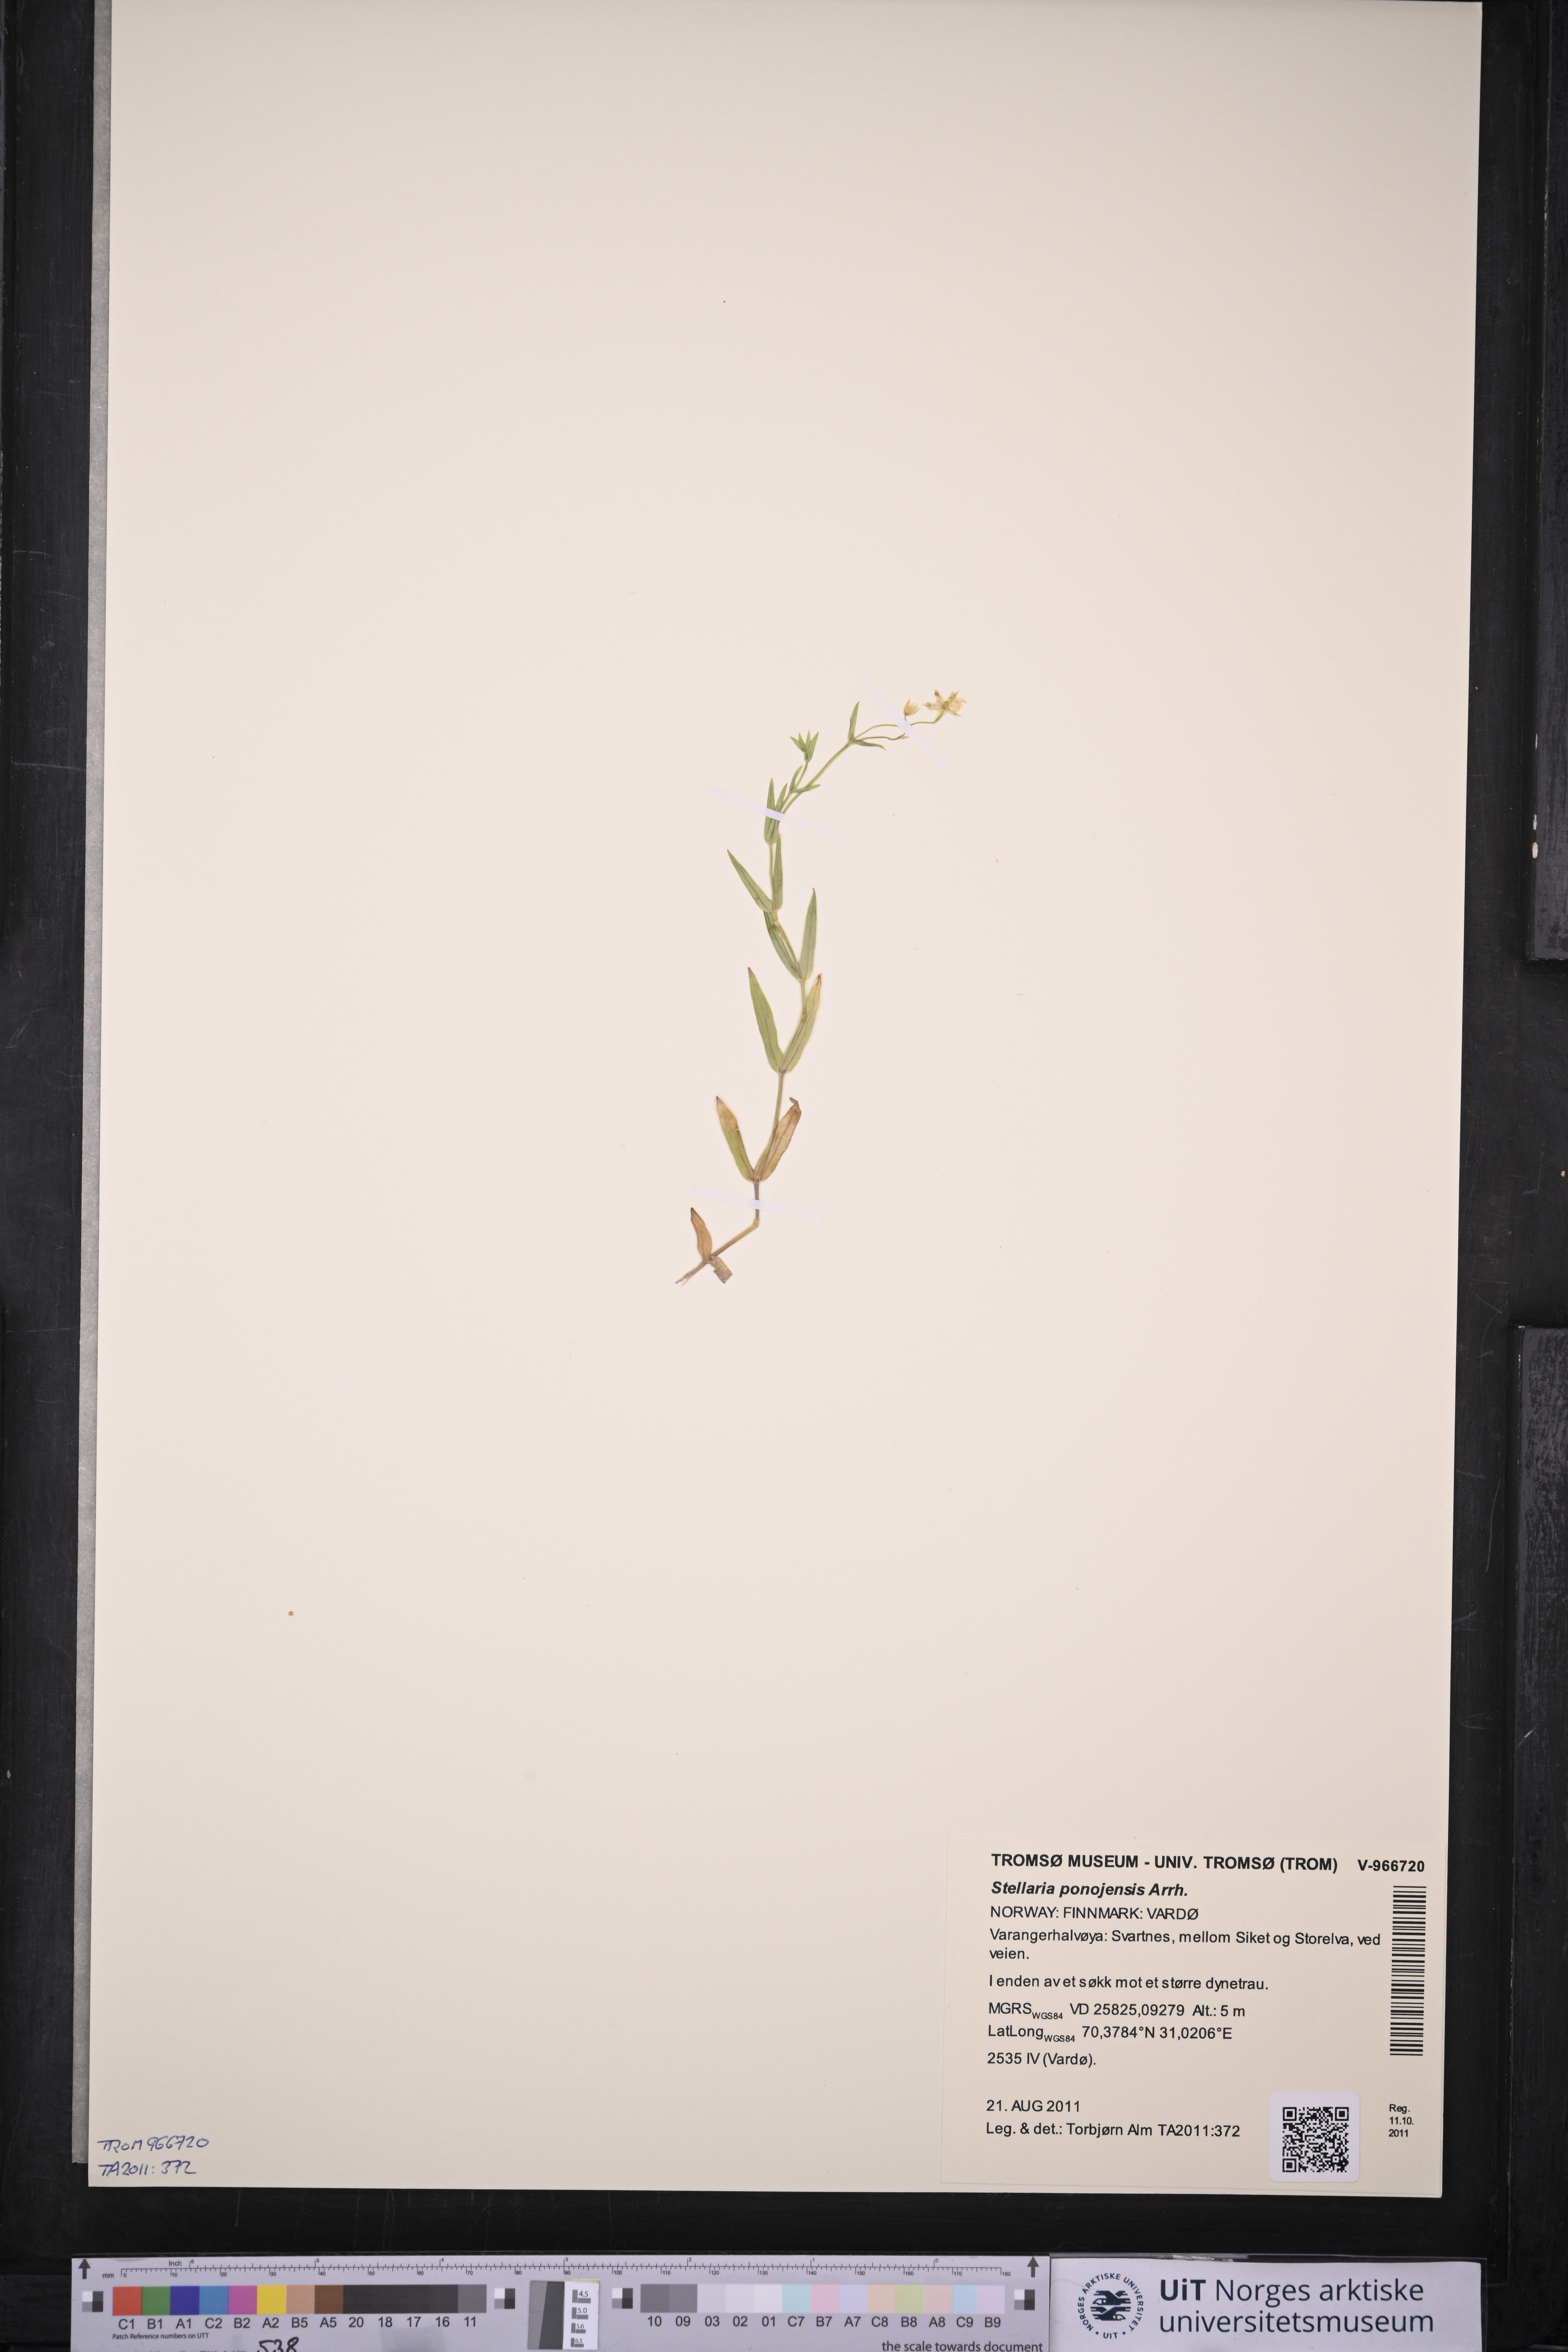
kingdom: Plantae
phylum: Tracheophyta
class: Magnoliopsida
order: Caryophyllales
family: Caryophyllaceae
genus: Stellaria
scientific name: Stellaria hebecalyx
